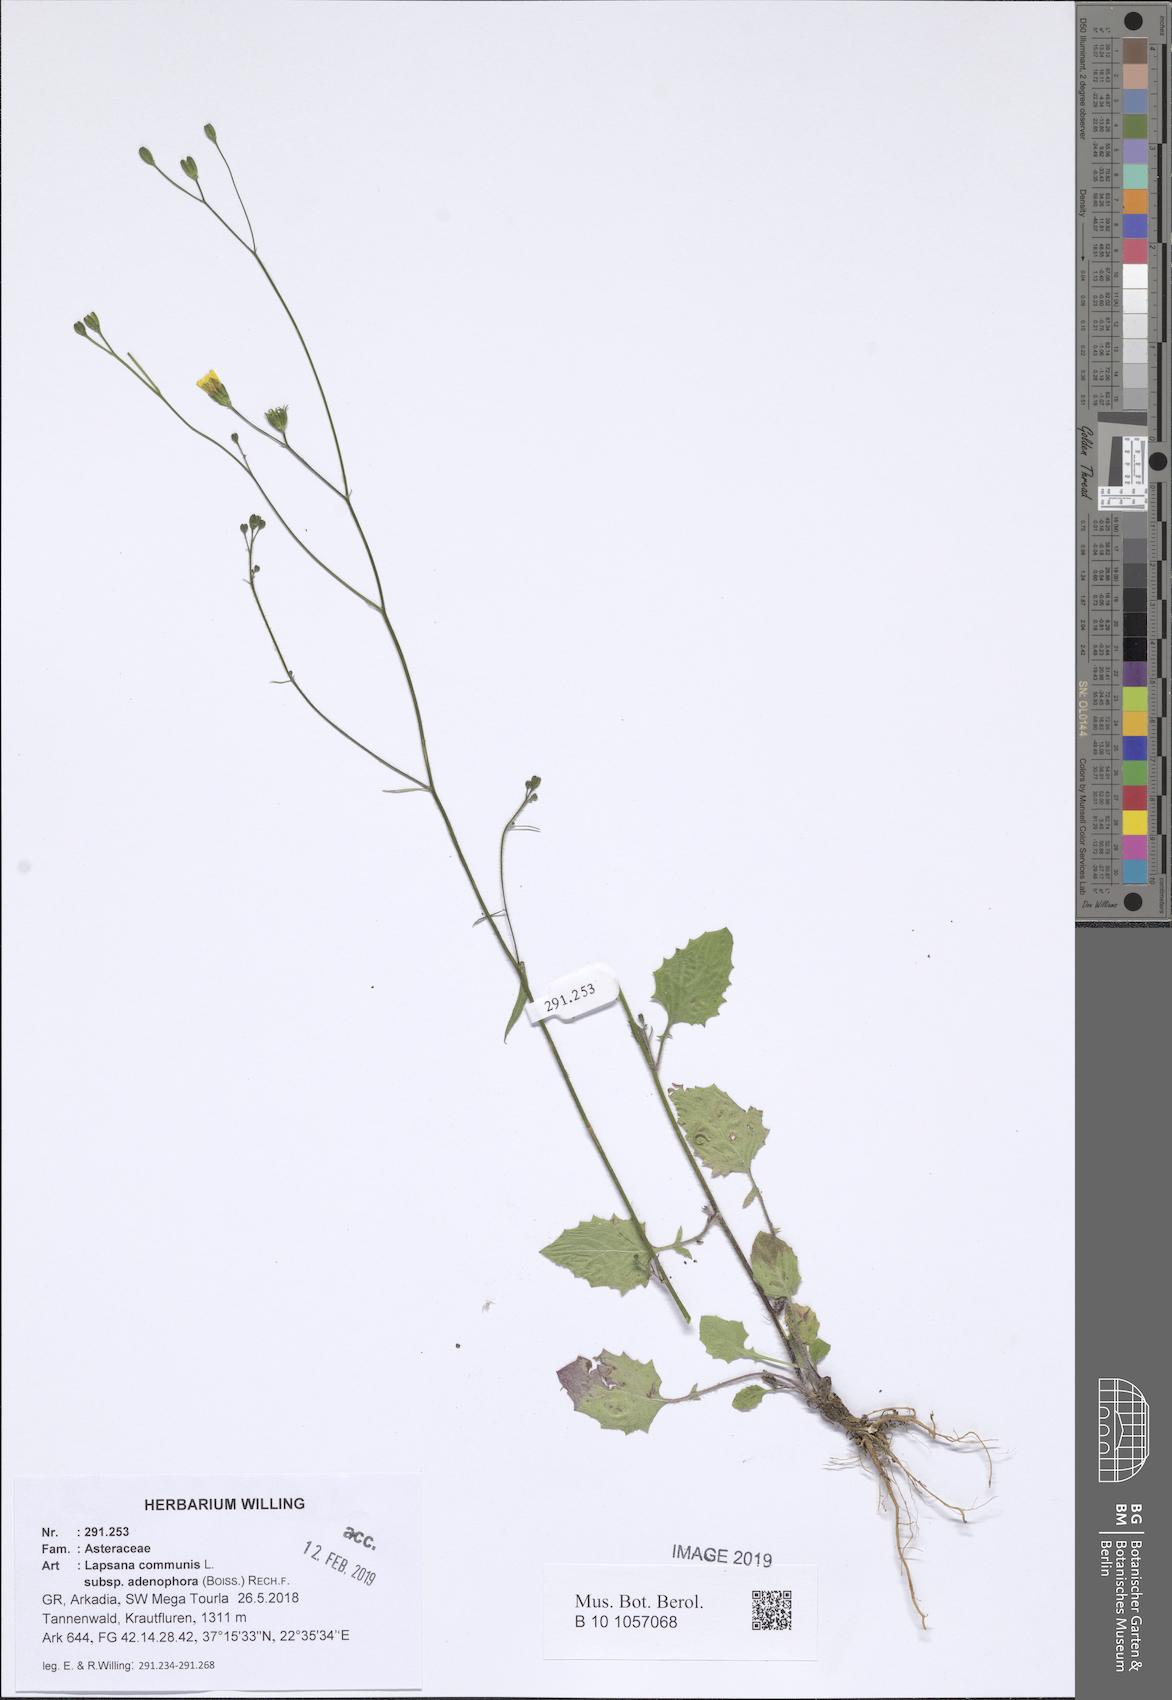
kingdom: Plantae
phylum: Tracheophyta
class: Magnoliopsida
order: Asterales
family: Asteraceae
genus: Lapsana
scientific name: Lapsana communis
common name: Nipplewort
